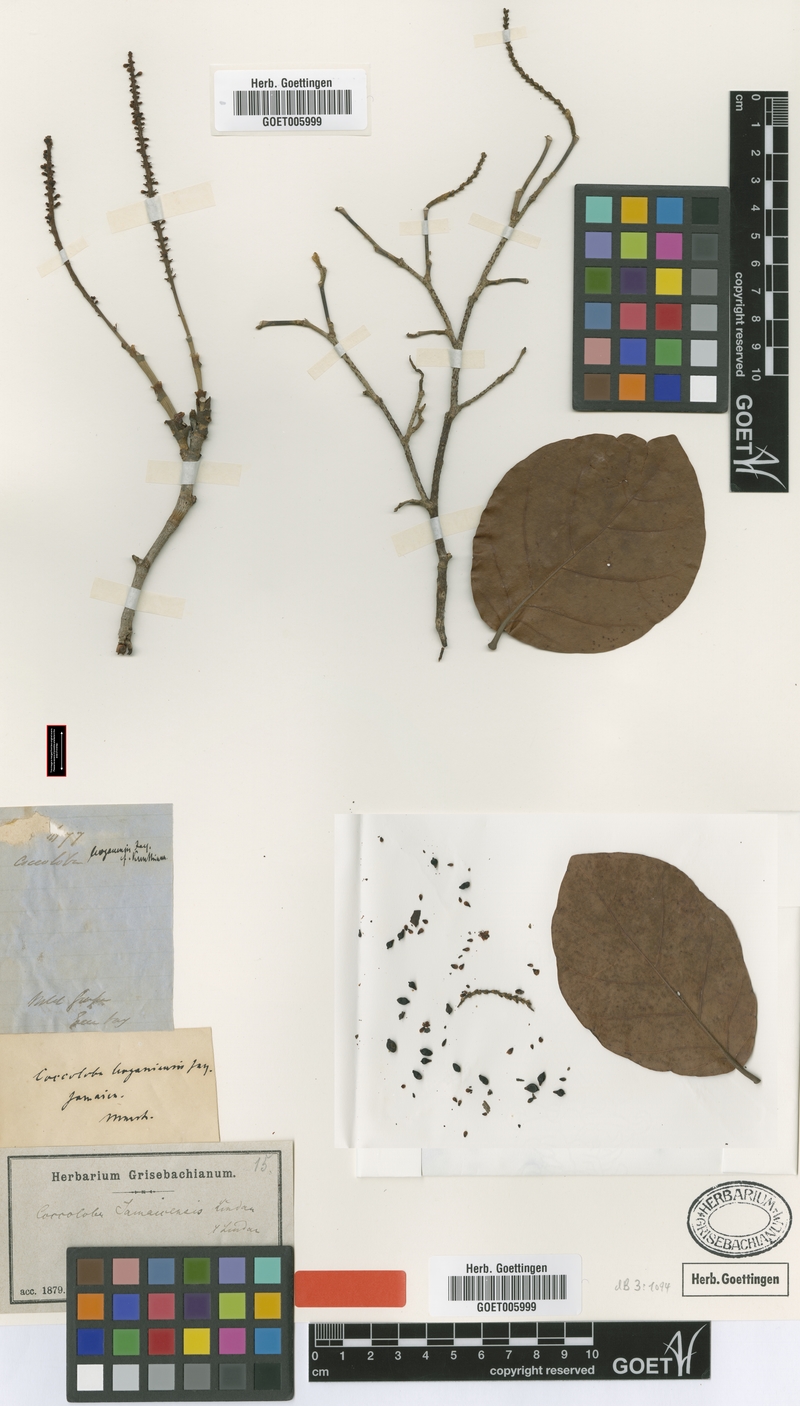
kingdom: Plantae
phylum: Tracheophyta
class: Magnoliopsida
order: Caryophyllales
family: Polygonaceae
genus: Coccoloba
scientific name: Coccoloba jamaicensis
